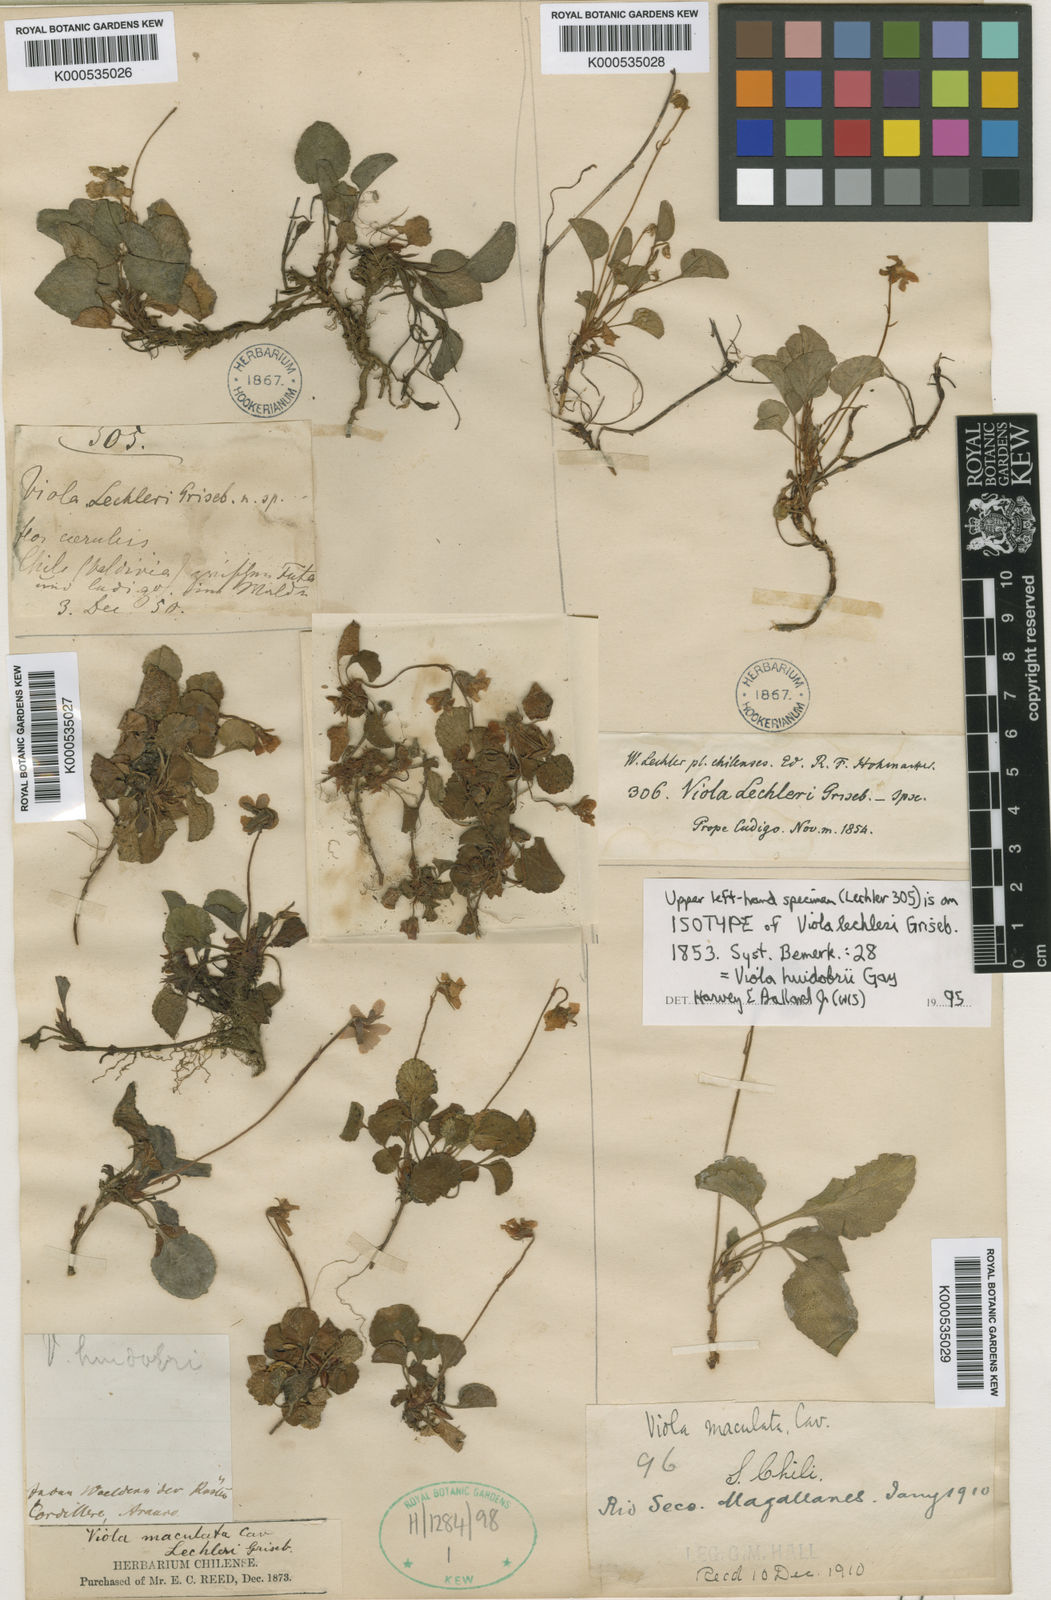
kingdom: Plantae
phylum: Tracheophyta
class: Magnoliopsida
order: Malpighiales
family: Violaceae
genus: Viola
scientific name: Viola maculata
